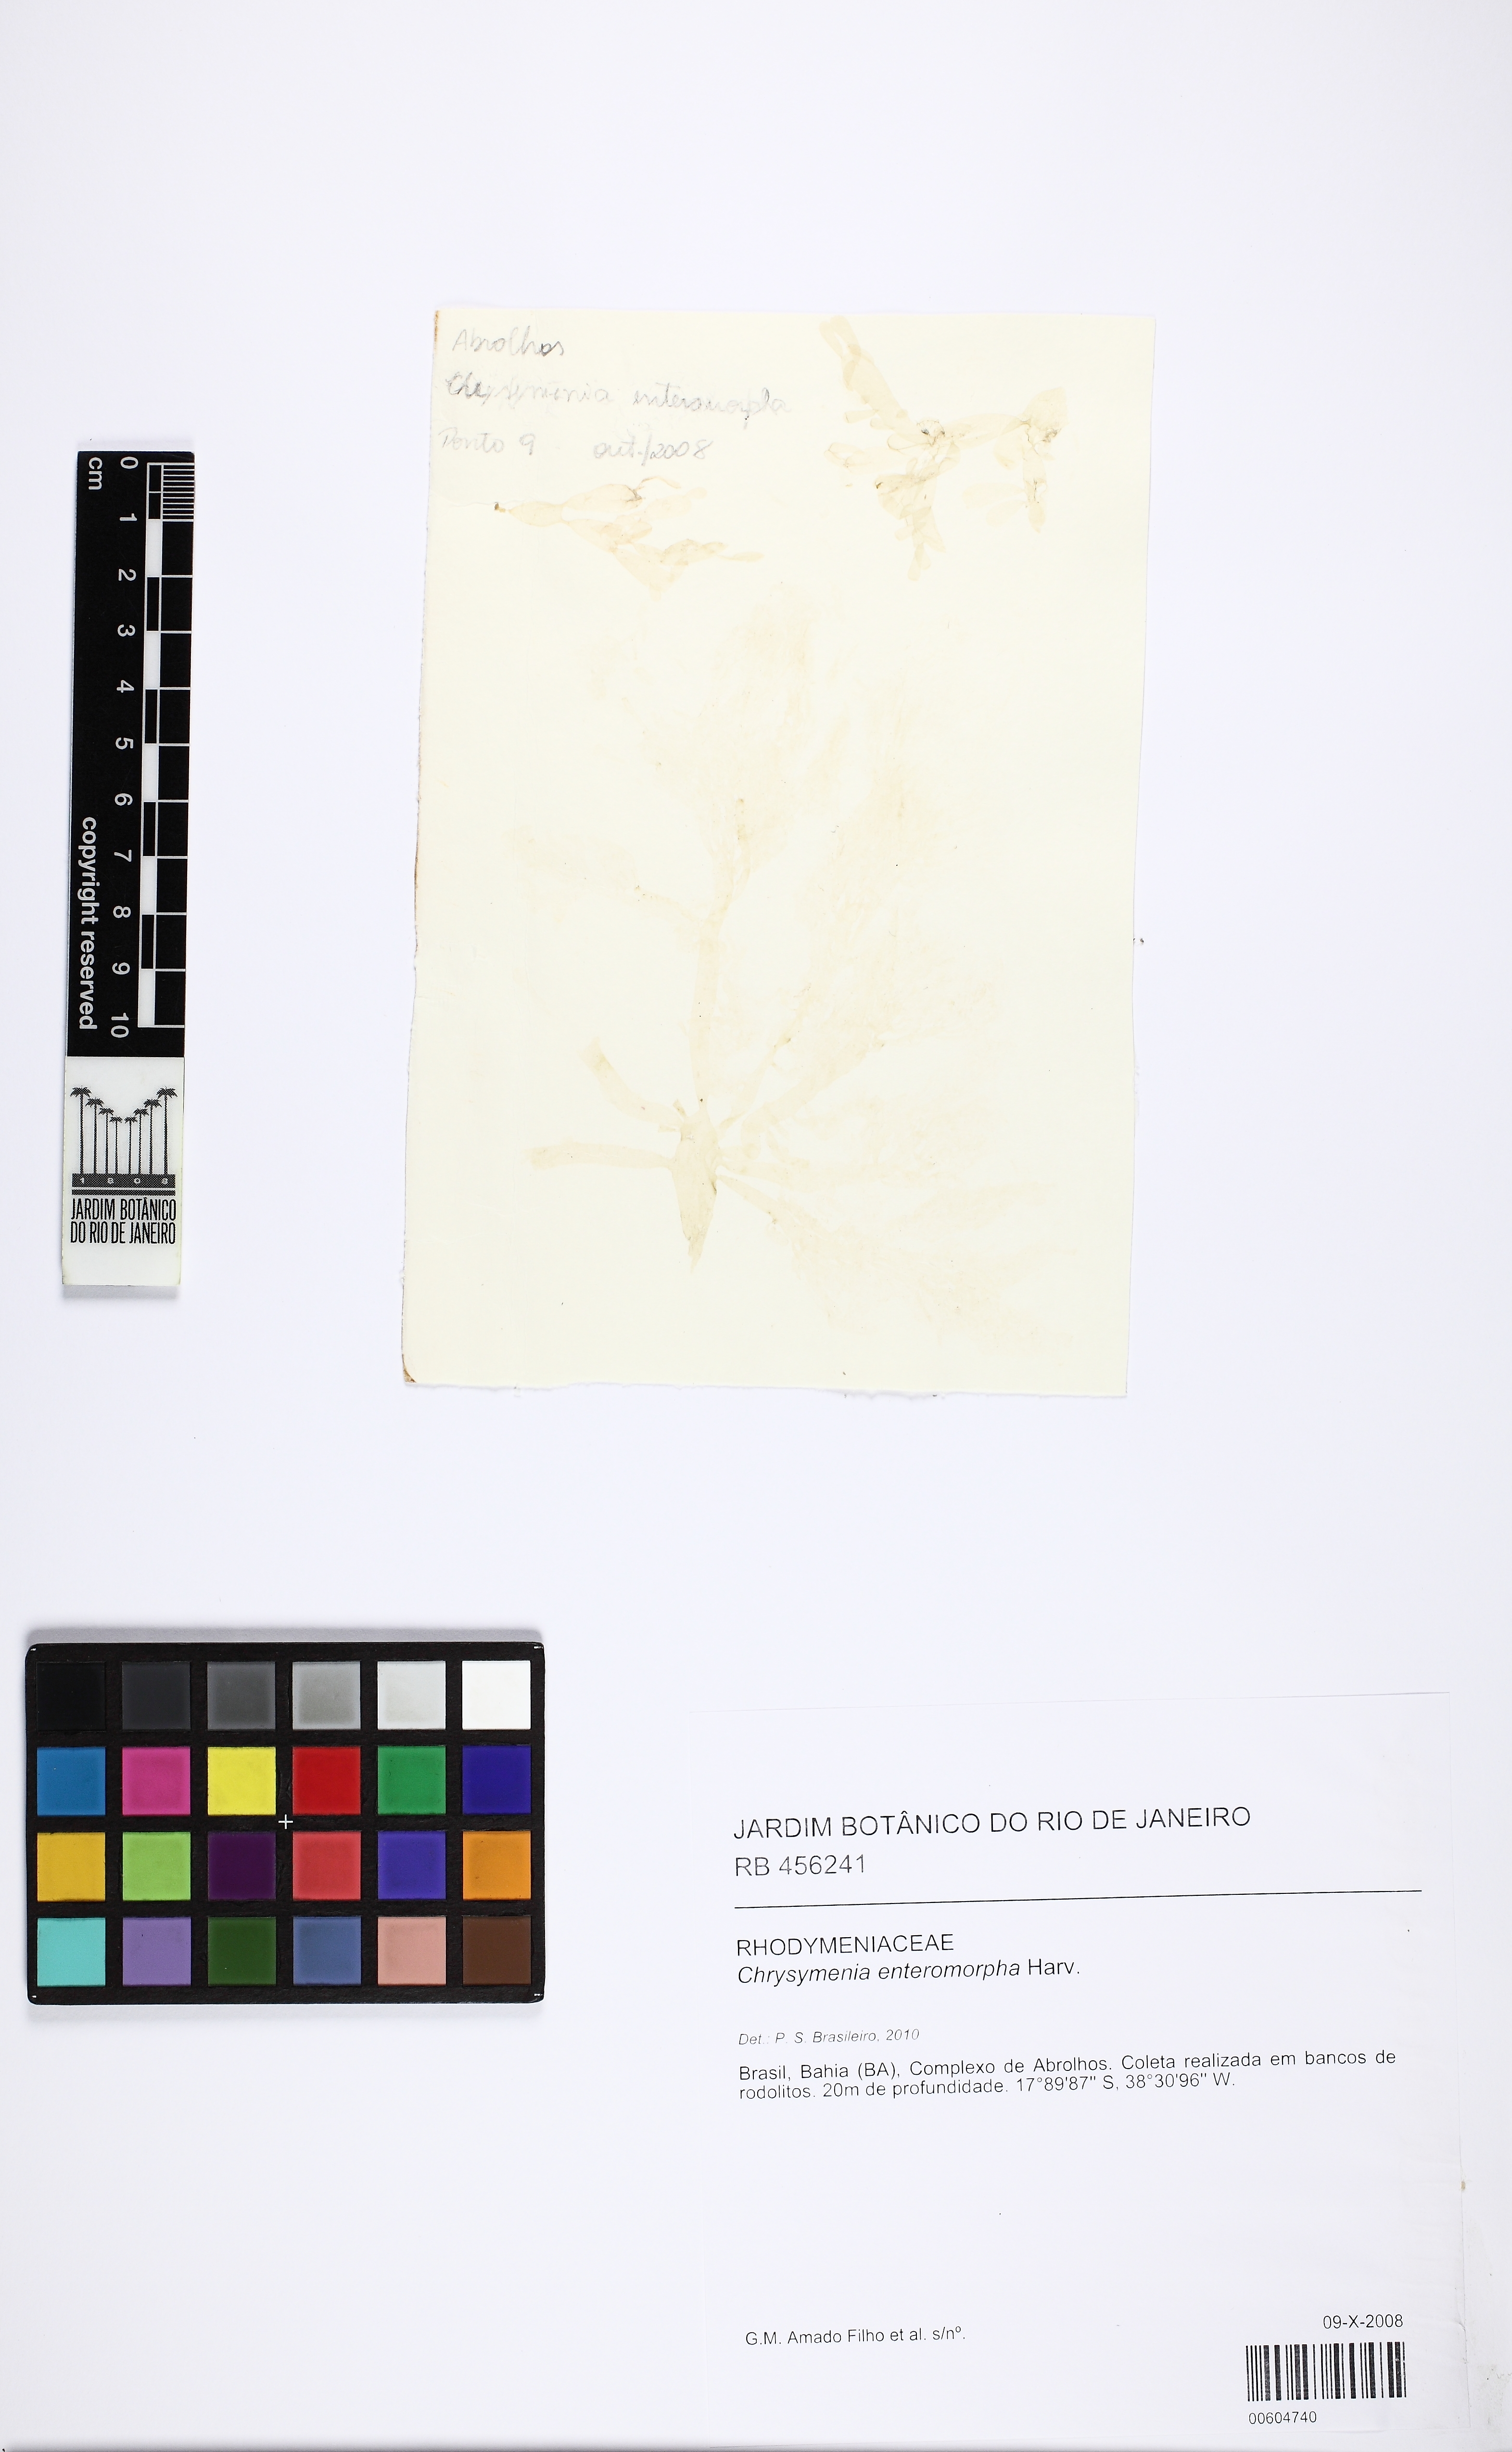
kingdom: Plantae
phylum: Rhodophyta
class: Florideophyceae
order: Rhodymeniales
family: Rhodymeniaceae
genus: Chrysymenia
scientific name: Chrysymenia enteromorpha
